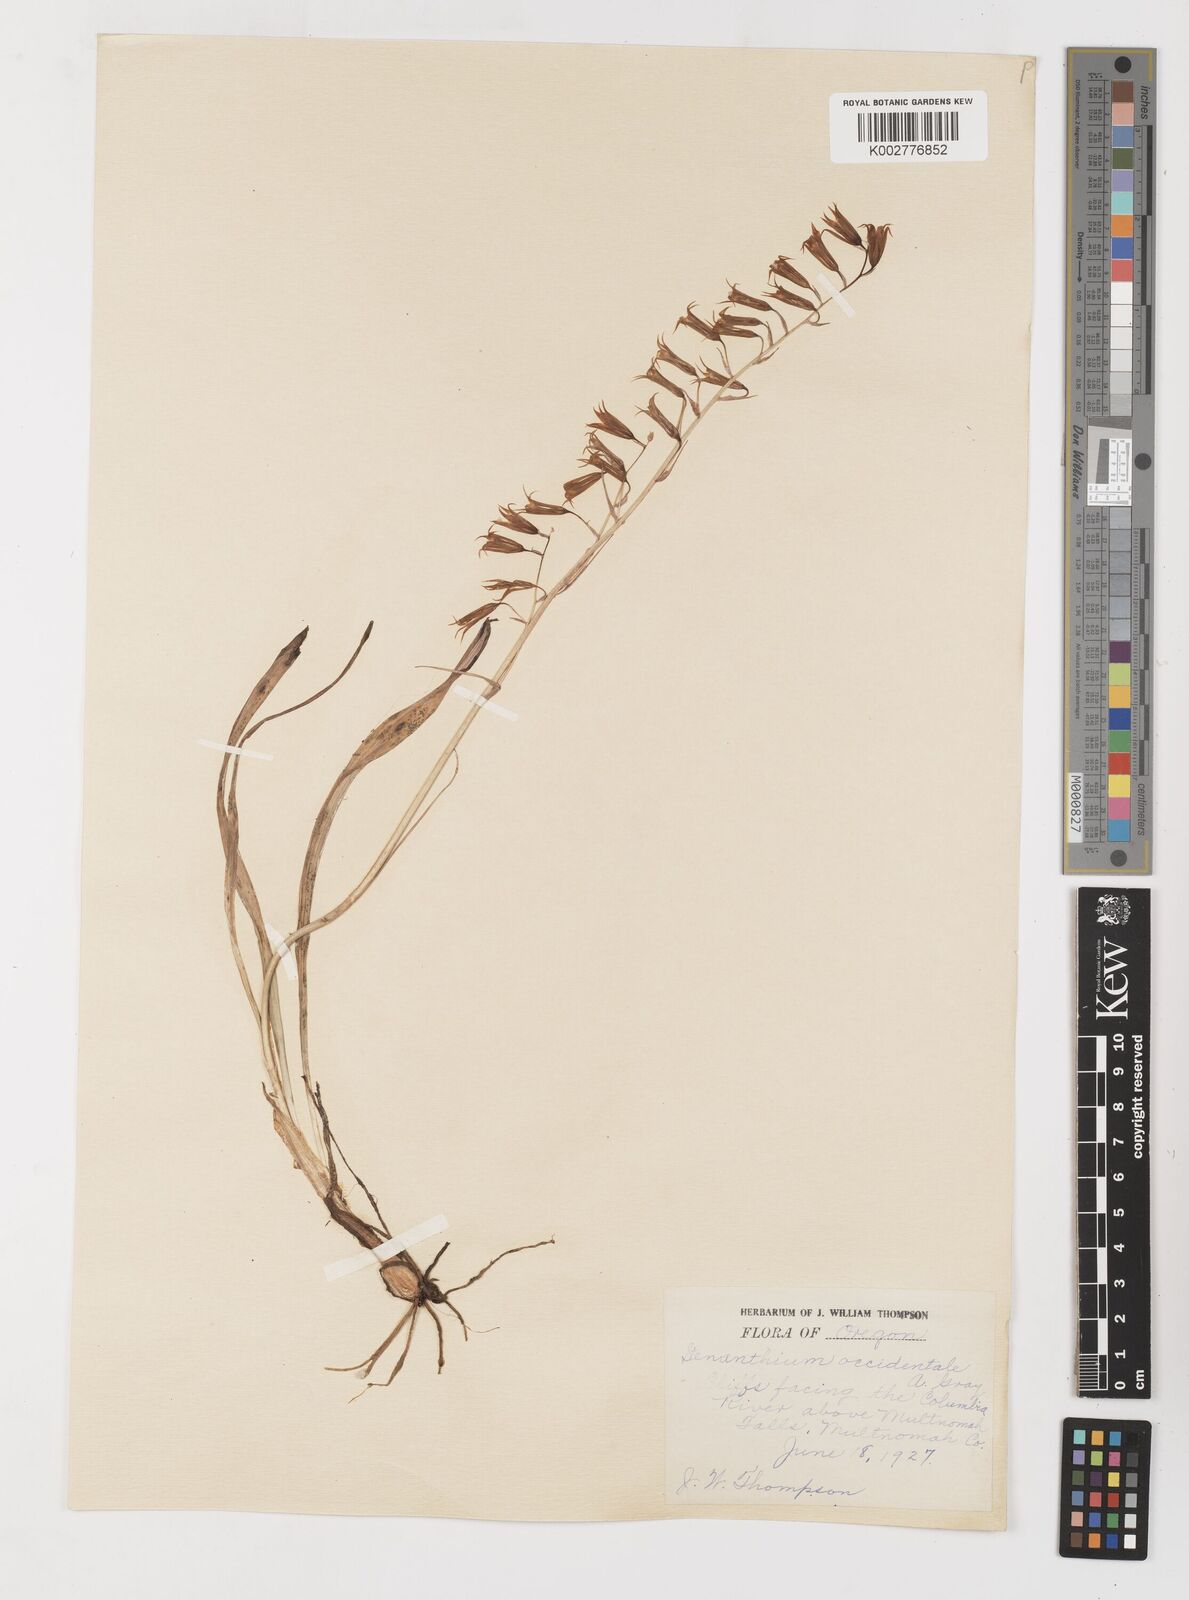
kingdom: Plantae
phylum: Tracheophyta
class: Liliopsida
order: Liliales
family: Melanthiaceae
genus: Anticlea
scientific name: Anticlea occidentalis
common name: Bronze-bells
